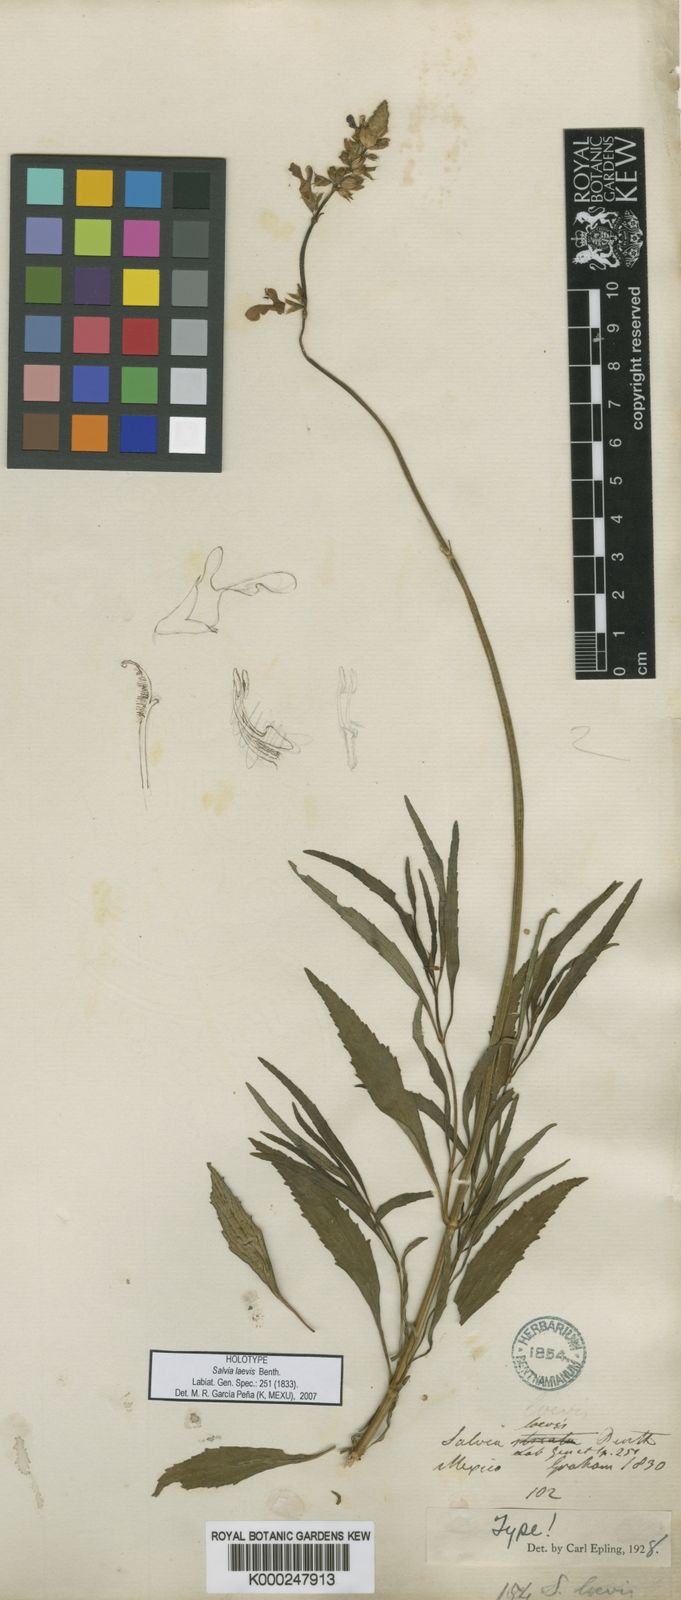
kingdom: Plantae
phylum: Tracheophyta
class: Magnoliopsida
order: Lamiales
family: Lamiaceae
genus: Salvia
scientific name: Salvia laevis
